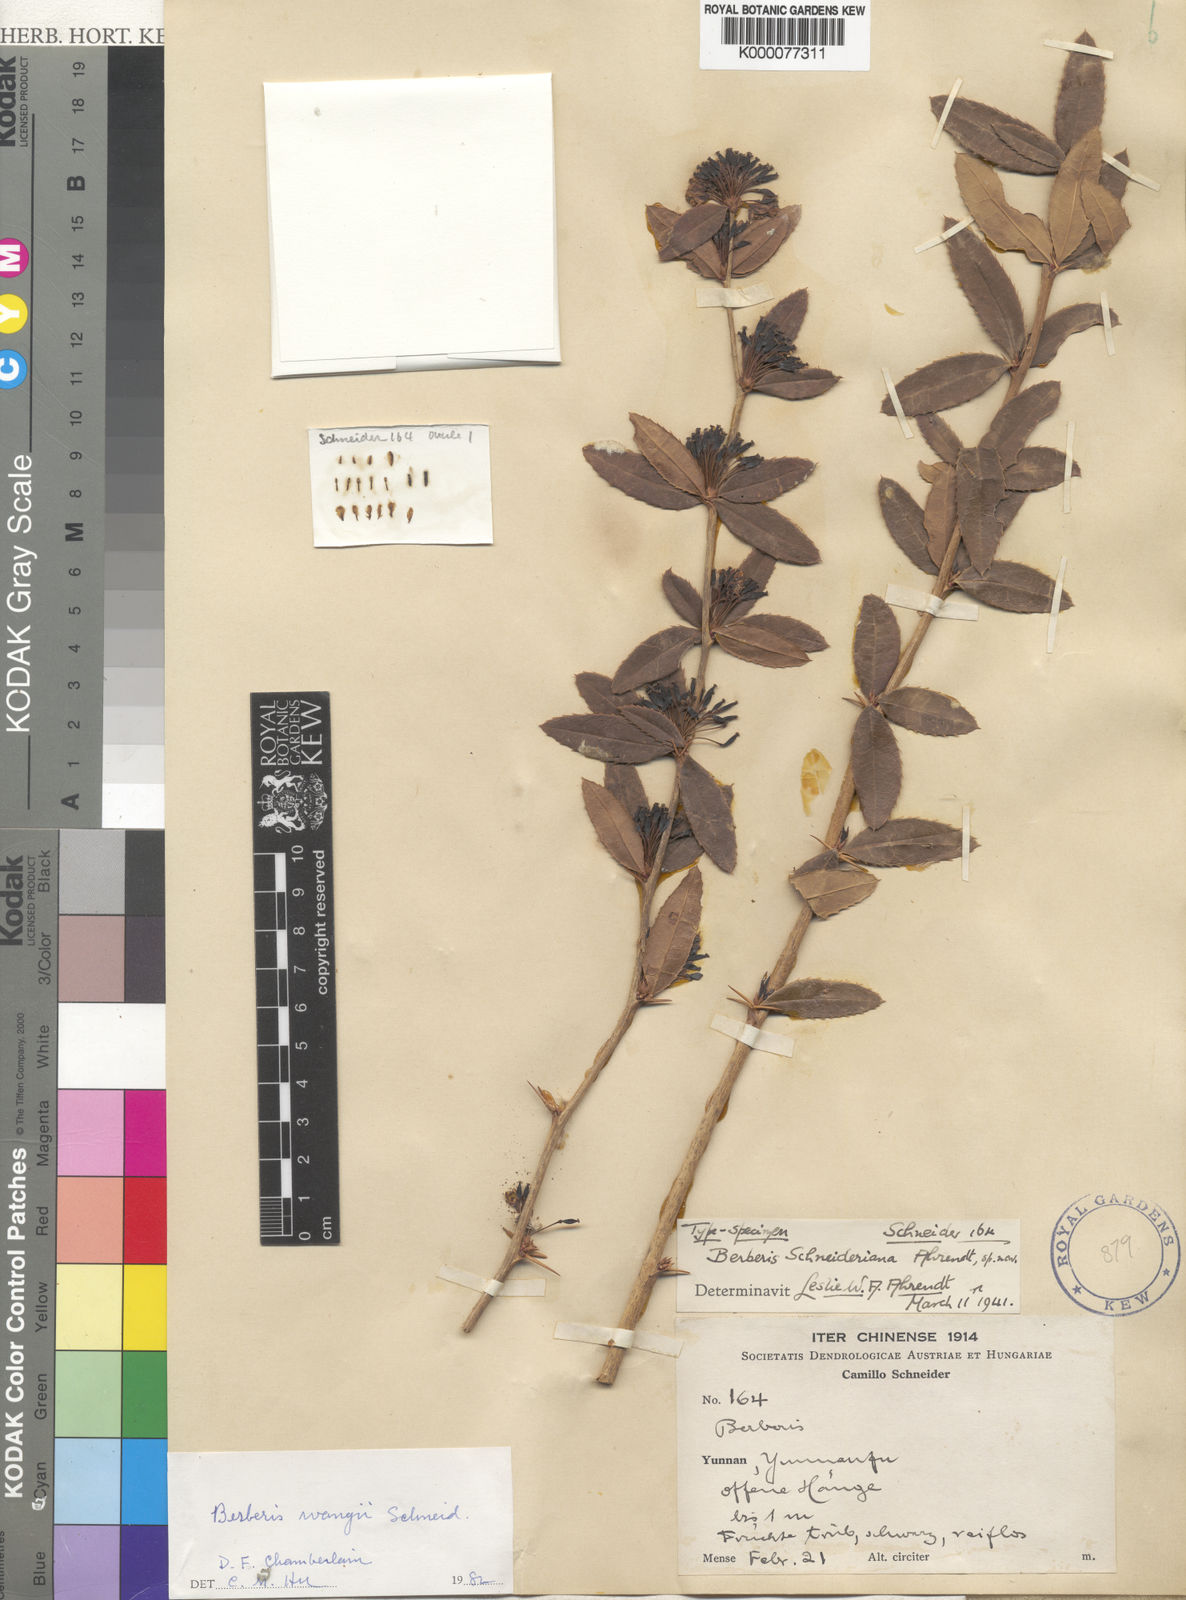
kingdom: Plantae
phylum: Tracheophyta
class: Magnoliopsida
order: Ranunculales
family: Berberidaceae
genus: Berberis
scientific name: Berberis wangii
